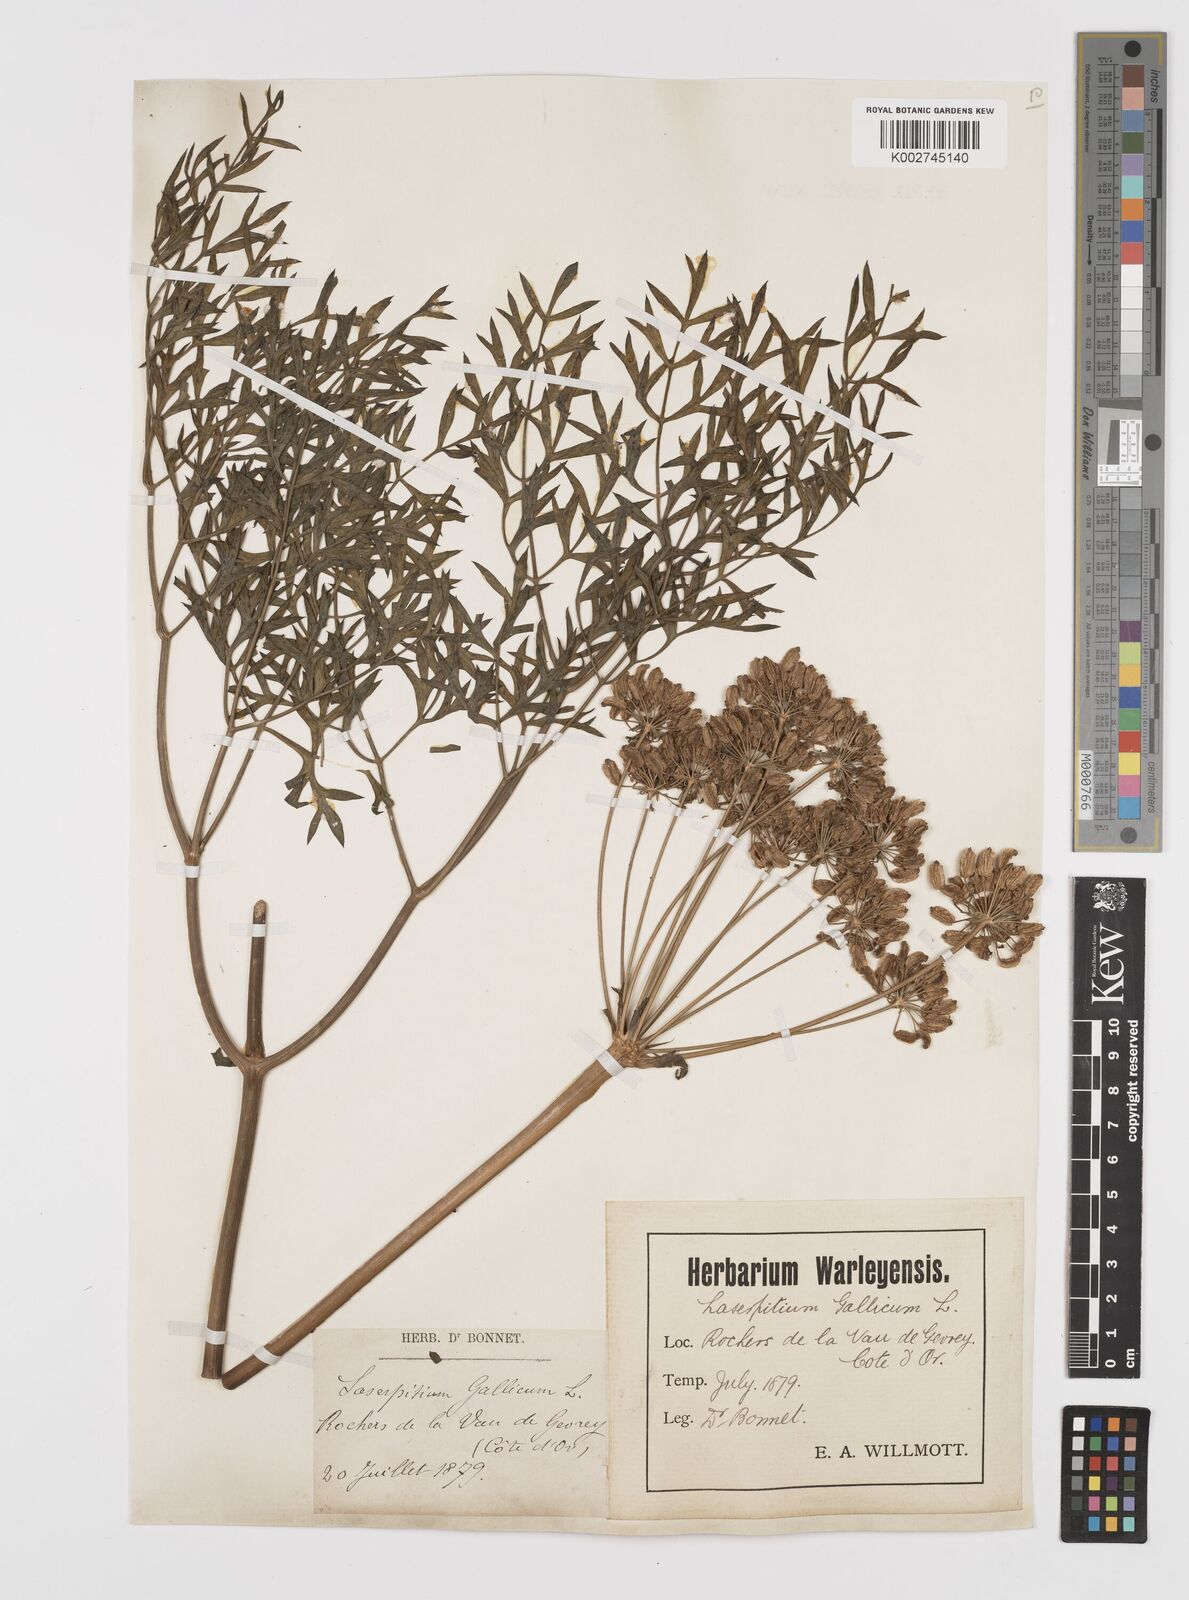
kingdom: Plantae
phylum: Tracheophyta
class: Magnoliopsida
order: Apiales
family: Apiaceae
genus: Laserpitium
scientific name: Laserpitium gallicum
